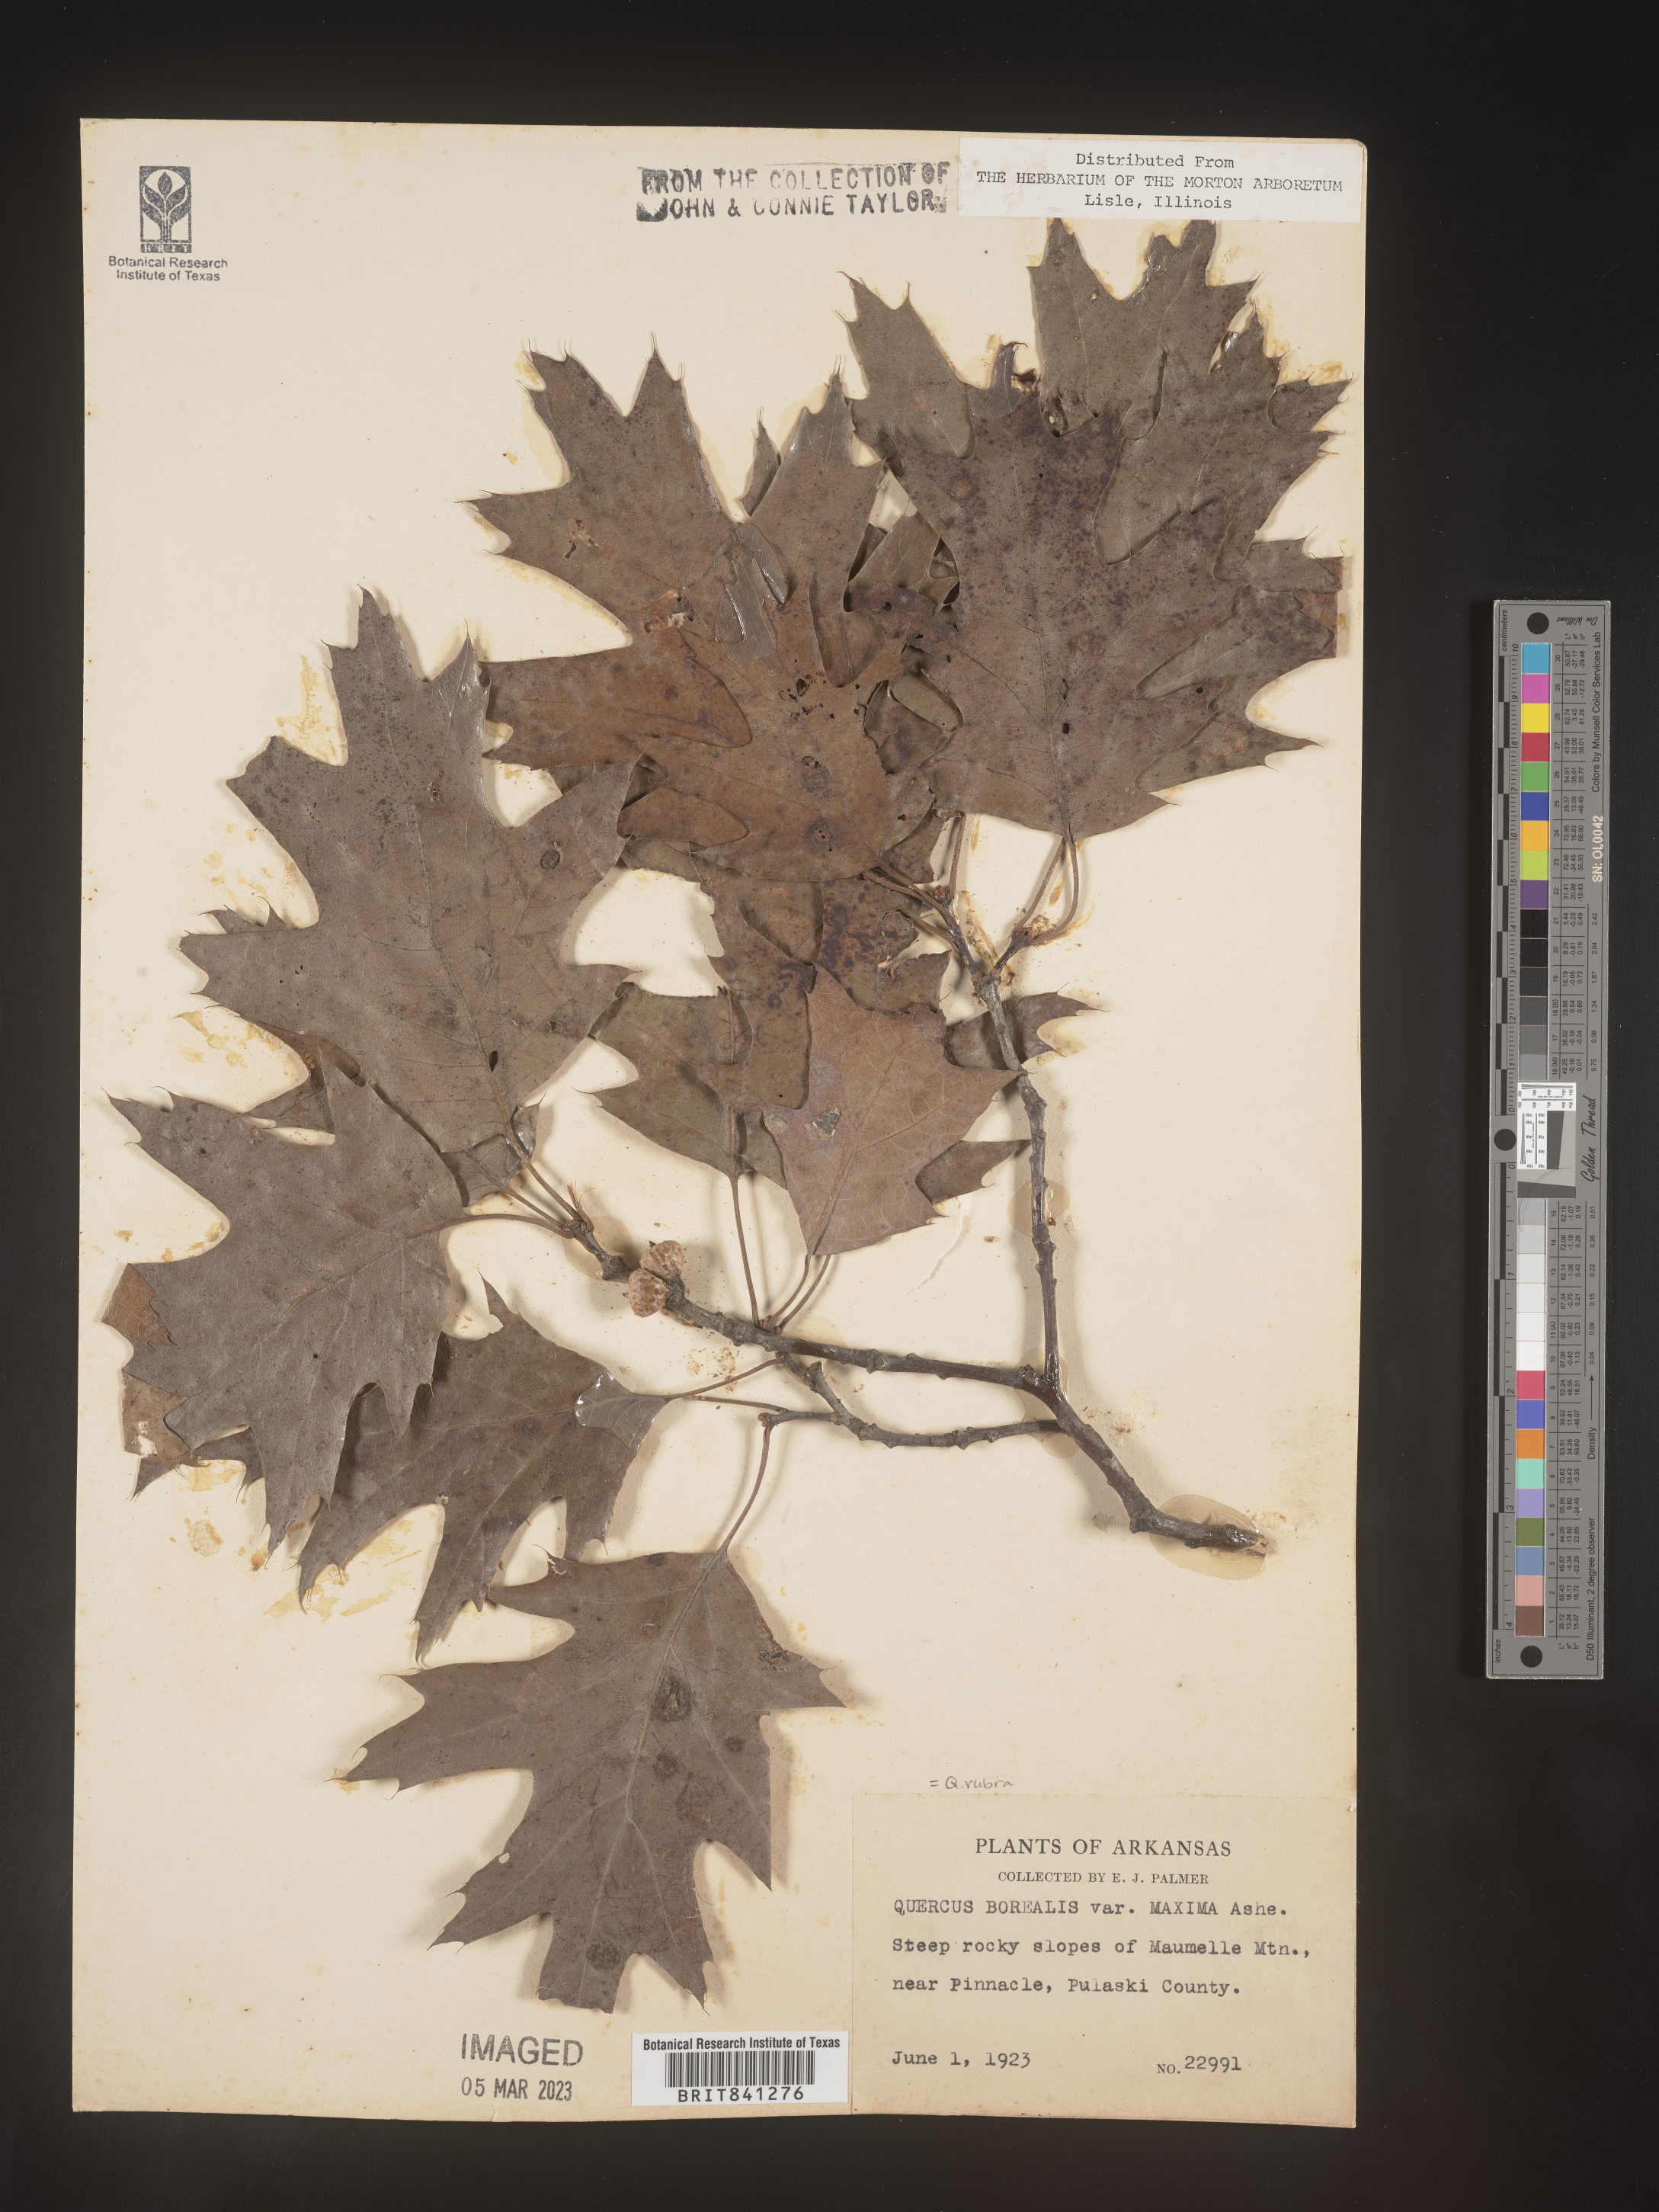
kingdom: Plantae
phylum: Tracheophyta
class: Magnoliopsida
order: Fagales
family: Fagaceae
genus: Quercus
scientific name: Quercus rubra
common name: Red oak
